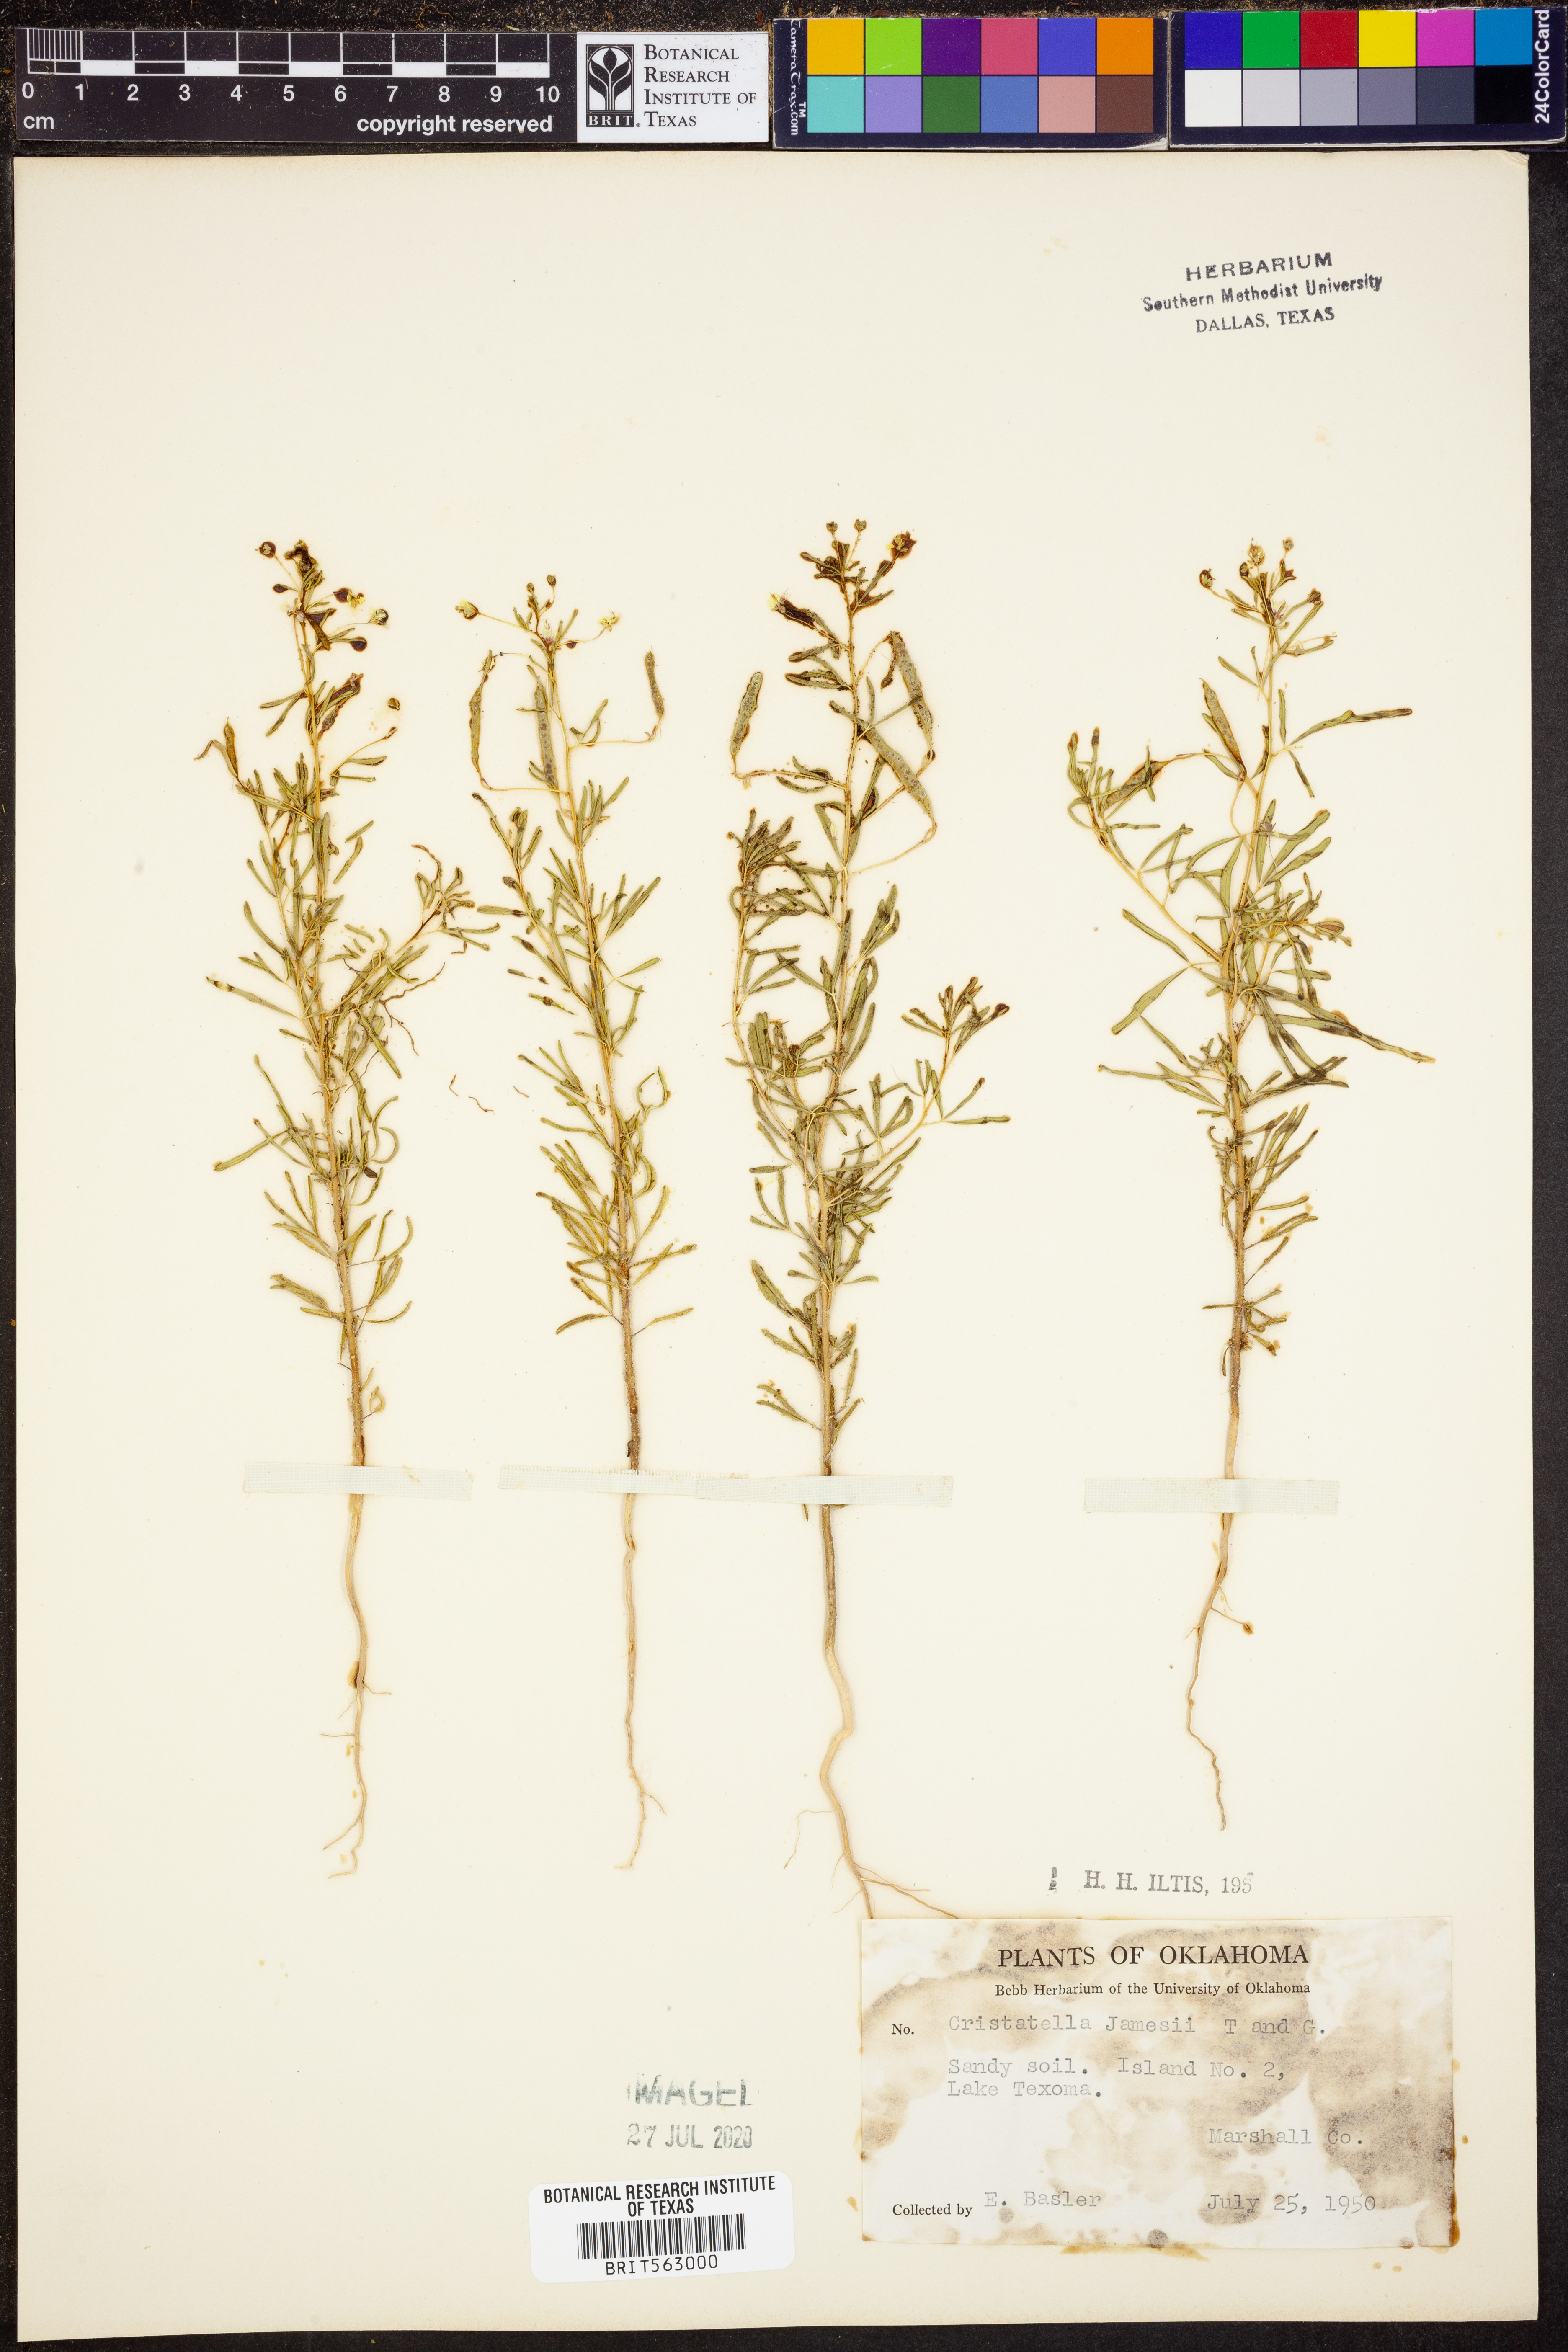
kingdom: Plantae
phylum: Tracheophyta
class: Magnoliopsida
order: Brassicales
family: Cleomaceae
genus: Polanisia
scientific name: Polanisia jamesii
